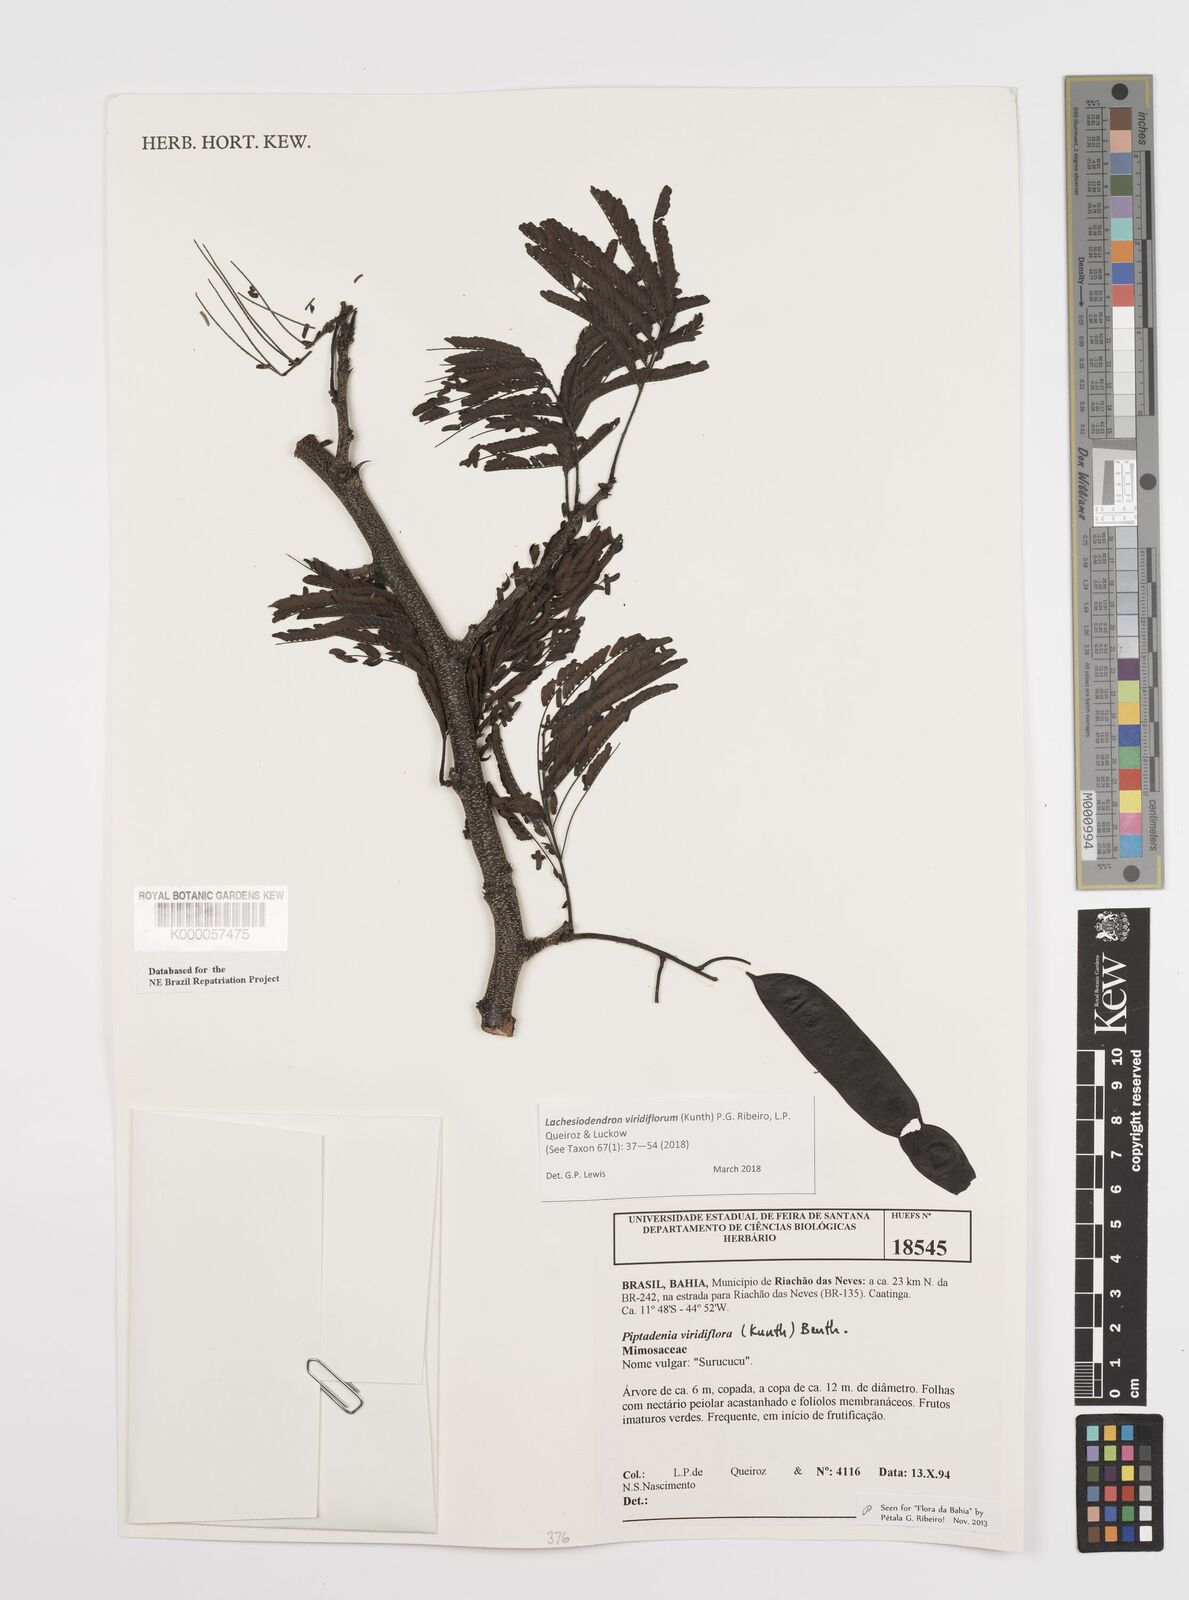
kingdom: Plantae
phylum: Tracheophyta
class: Magnoliopsida
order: Fabales
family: Fabaceae
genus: Lachesiodendron
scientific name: Lachesiodendron viridiflorum
